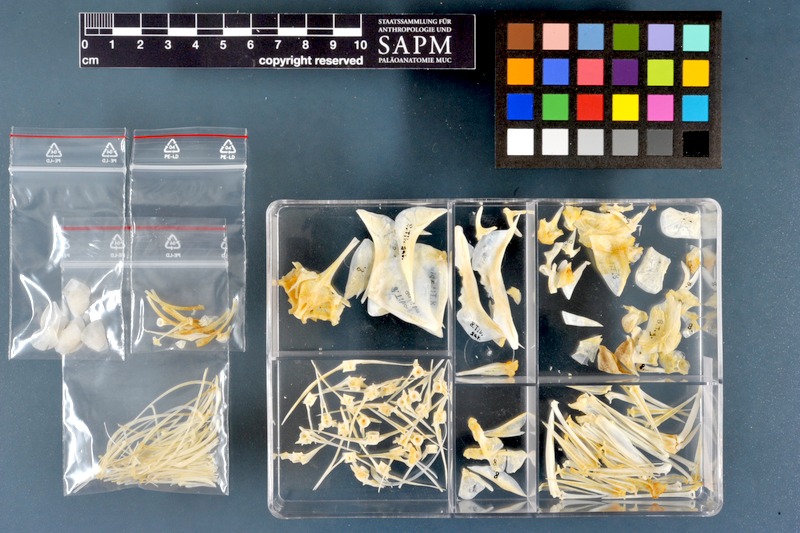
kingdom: Animalia
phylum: Chordata
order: Perciformes
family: Cichlidae
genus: Sarotherodon
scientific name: Sarotherodon galilaeus
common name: Mango tilapia
